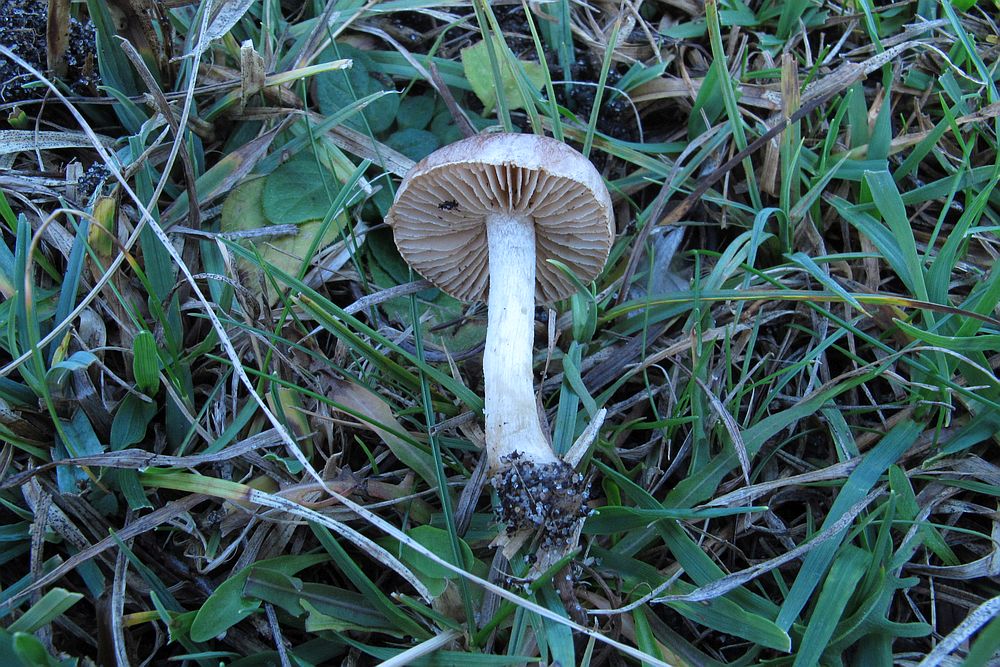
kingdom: Fungi
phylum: Basidiomycota
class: Agaricomycetes
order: Agaricales
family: Hymenogastraceae
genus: Hebeloma
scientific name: Hebeloma
